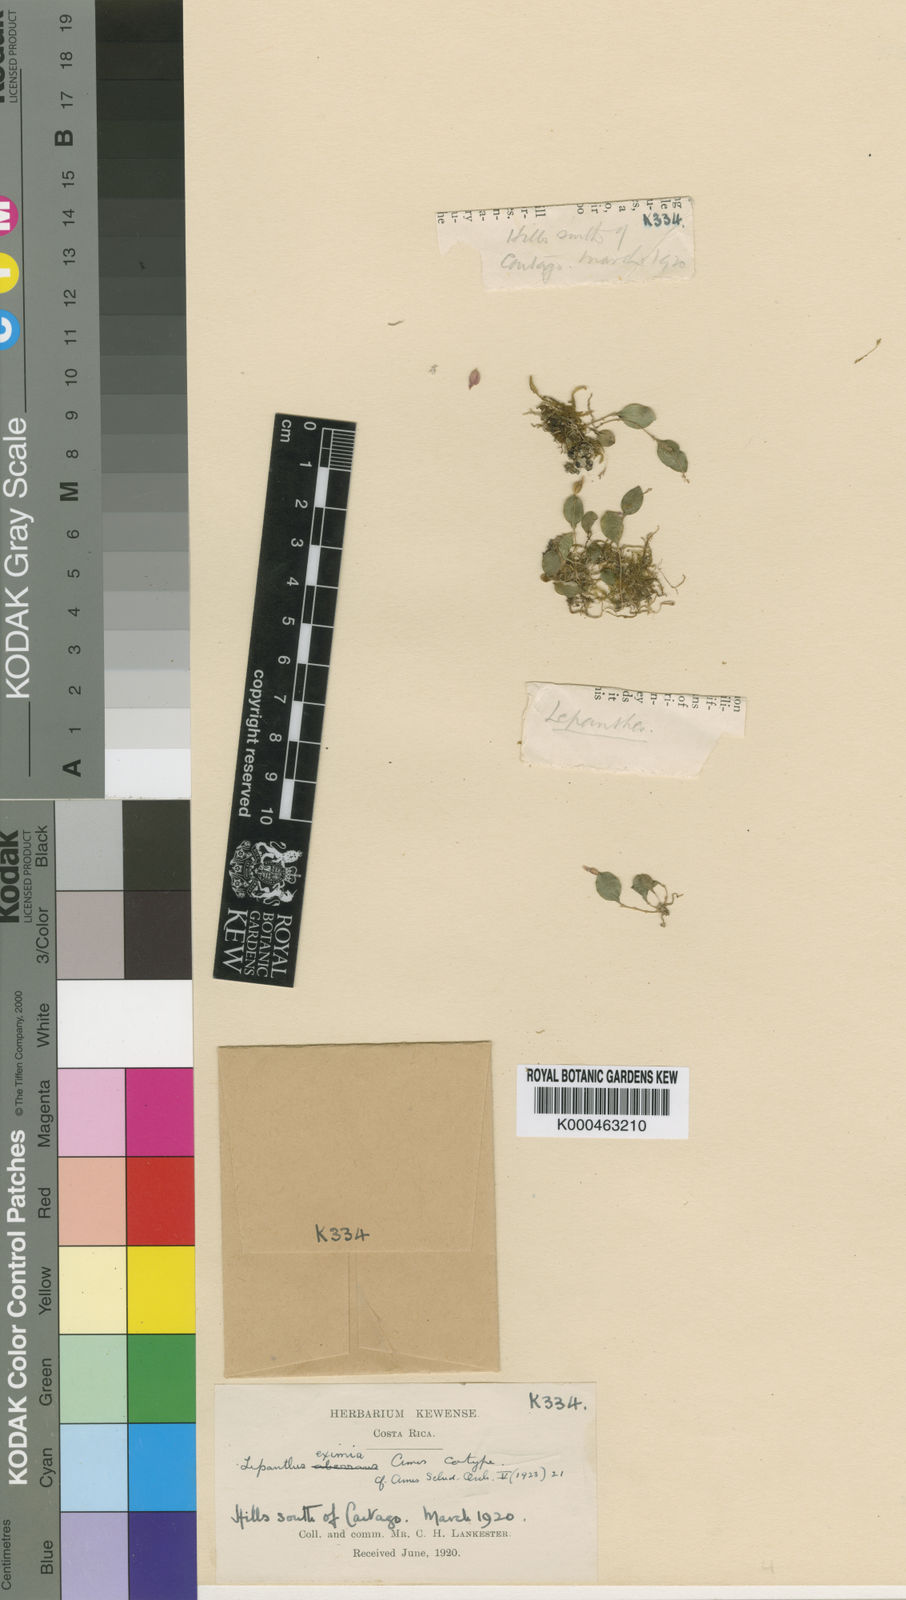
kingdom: Plantae
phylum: Tracheophyta
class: Liliopsida
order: Asparagales
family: Orchidaceae
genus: Lepanthes
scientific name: Lepanthes eximia
